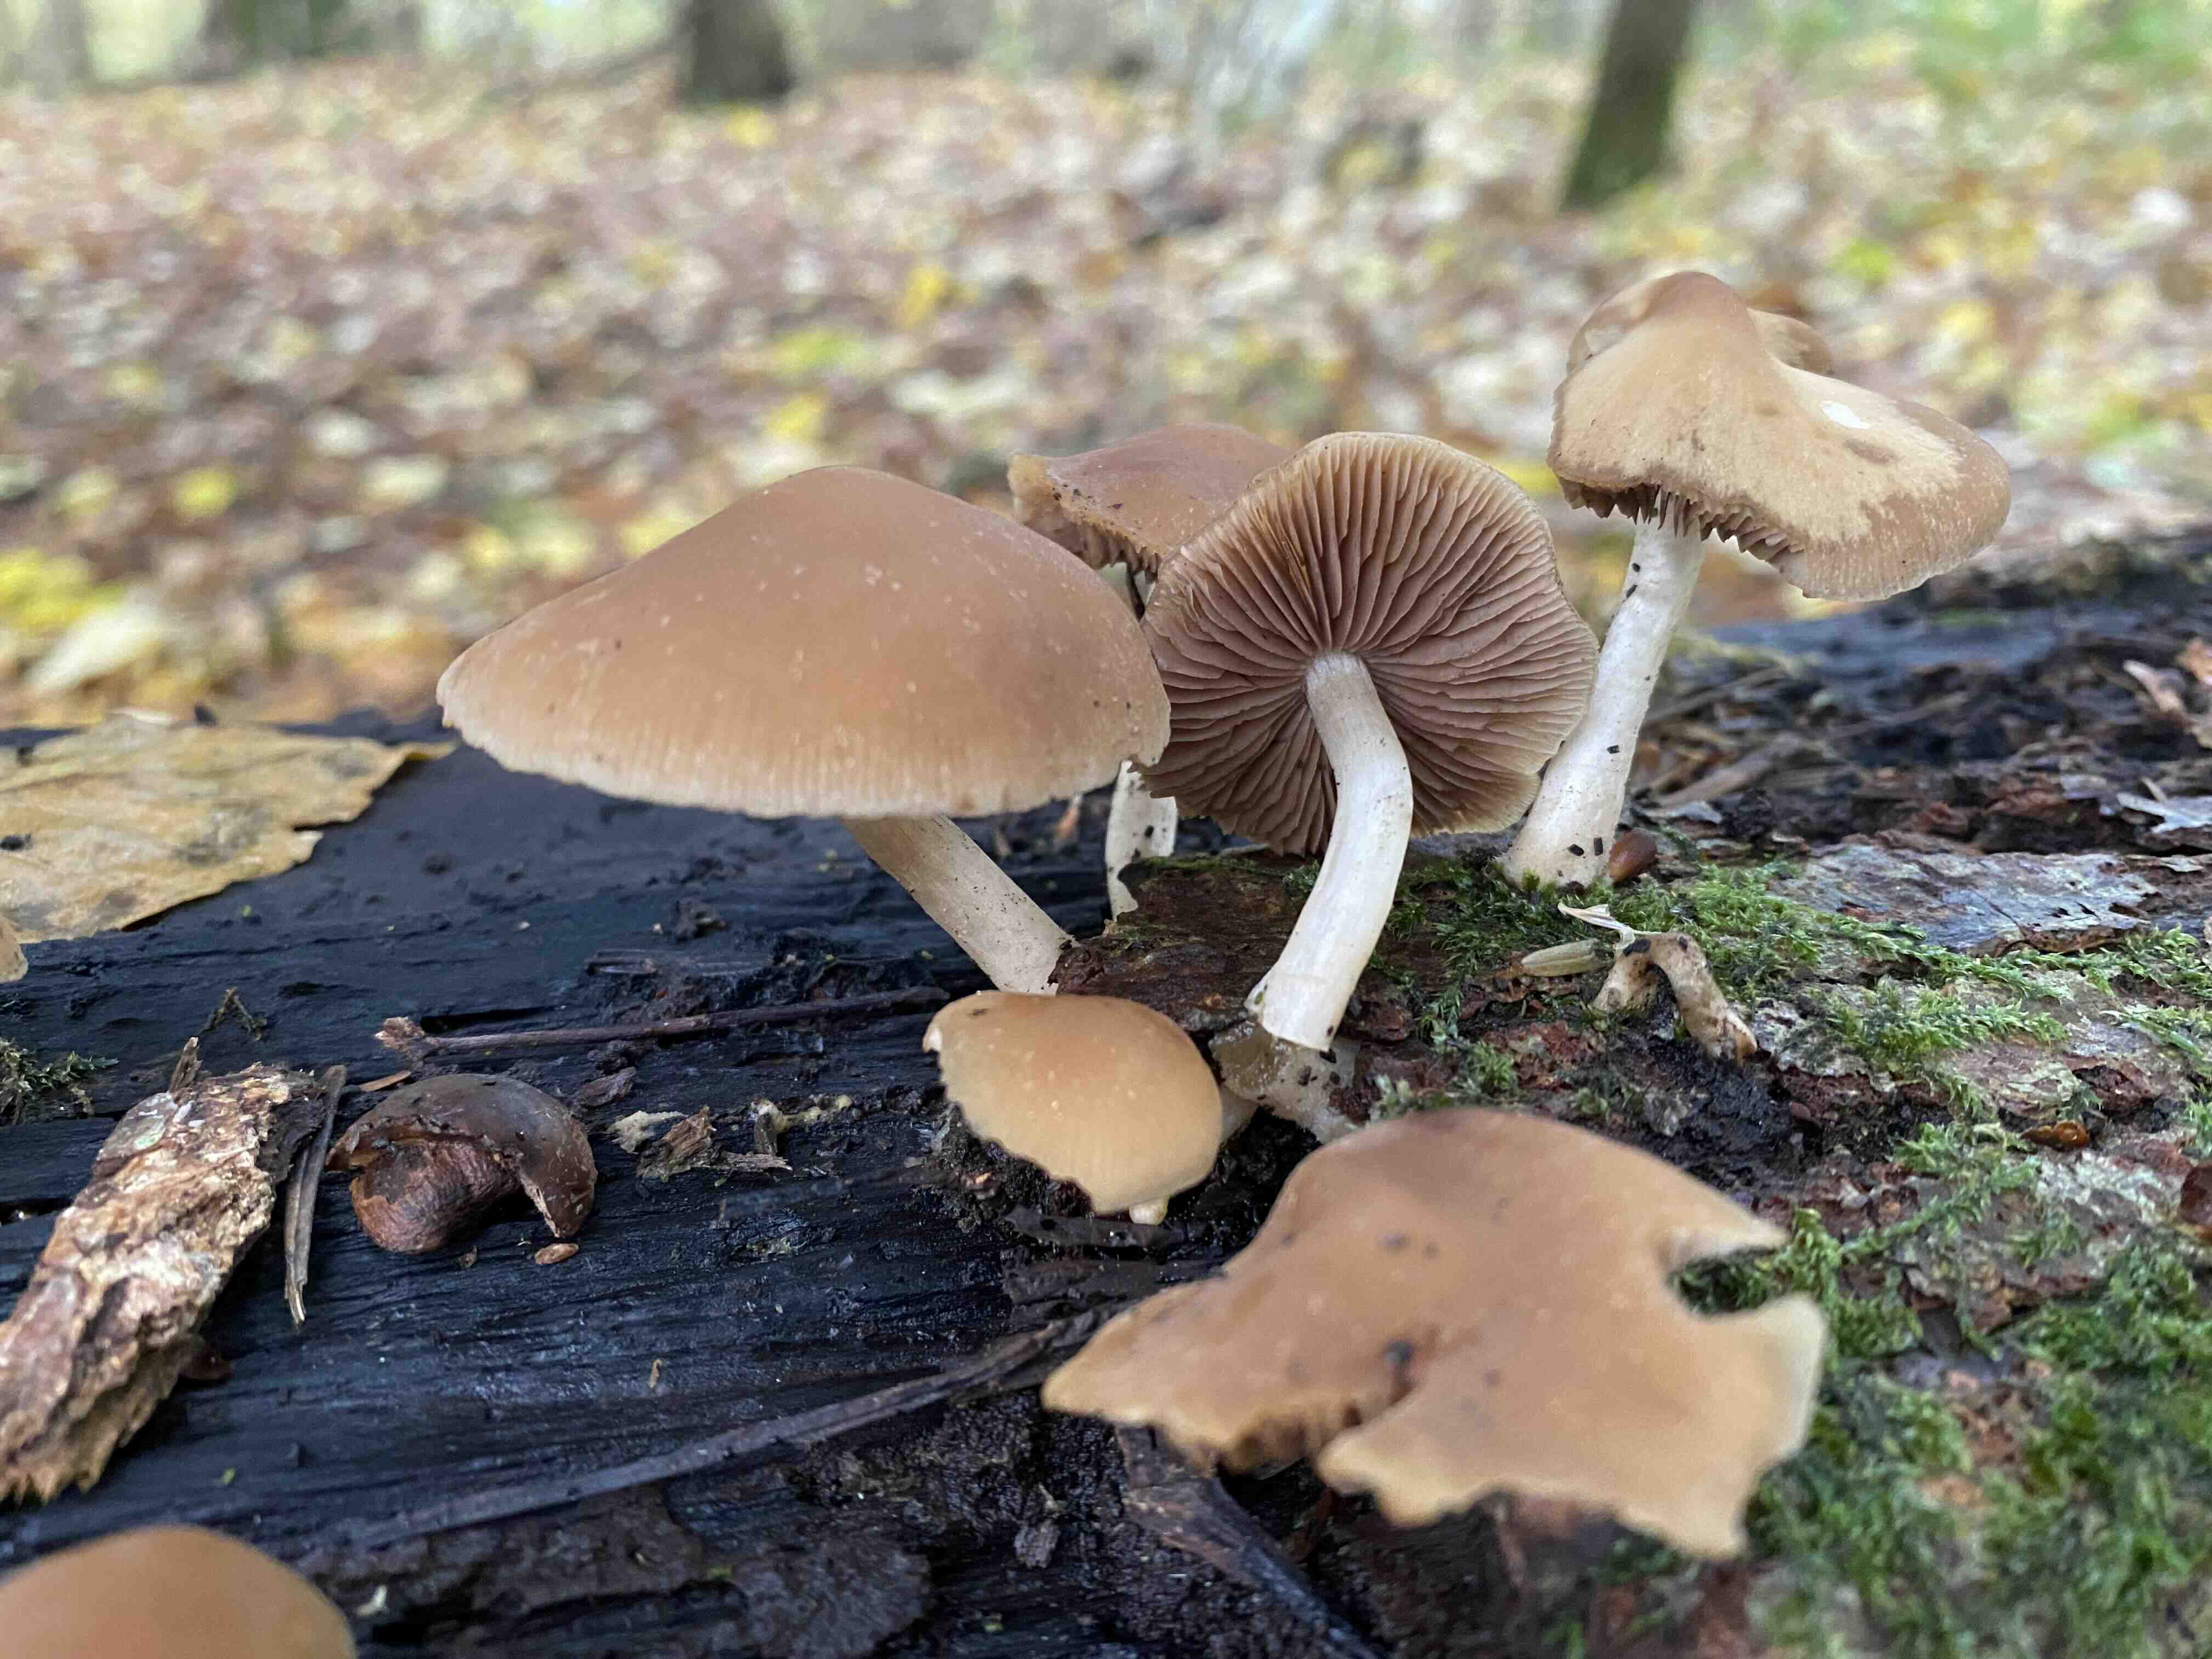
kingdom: Fungi
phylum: Basidiomycota
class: Agaricomycetes
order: Agaricales
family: Psathyrellaceae
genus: Psathyrella
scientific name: Psathyrella piluliformis
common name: lysstokket mørkhat
